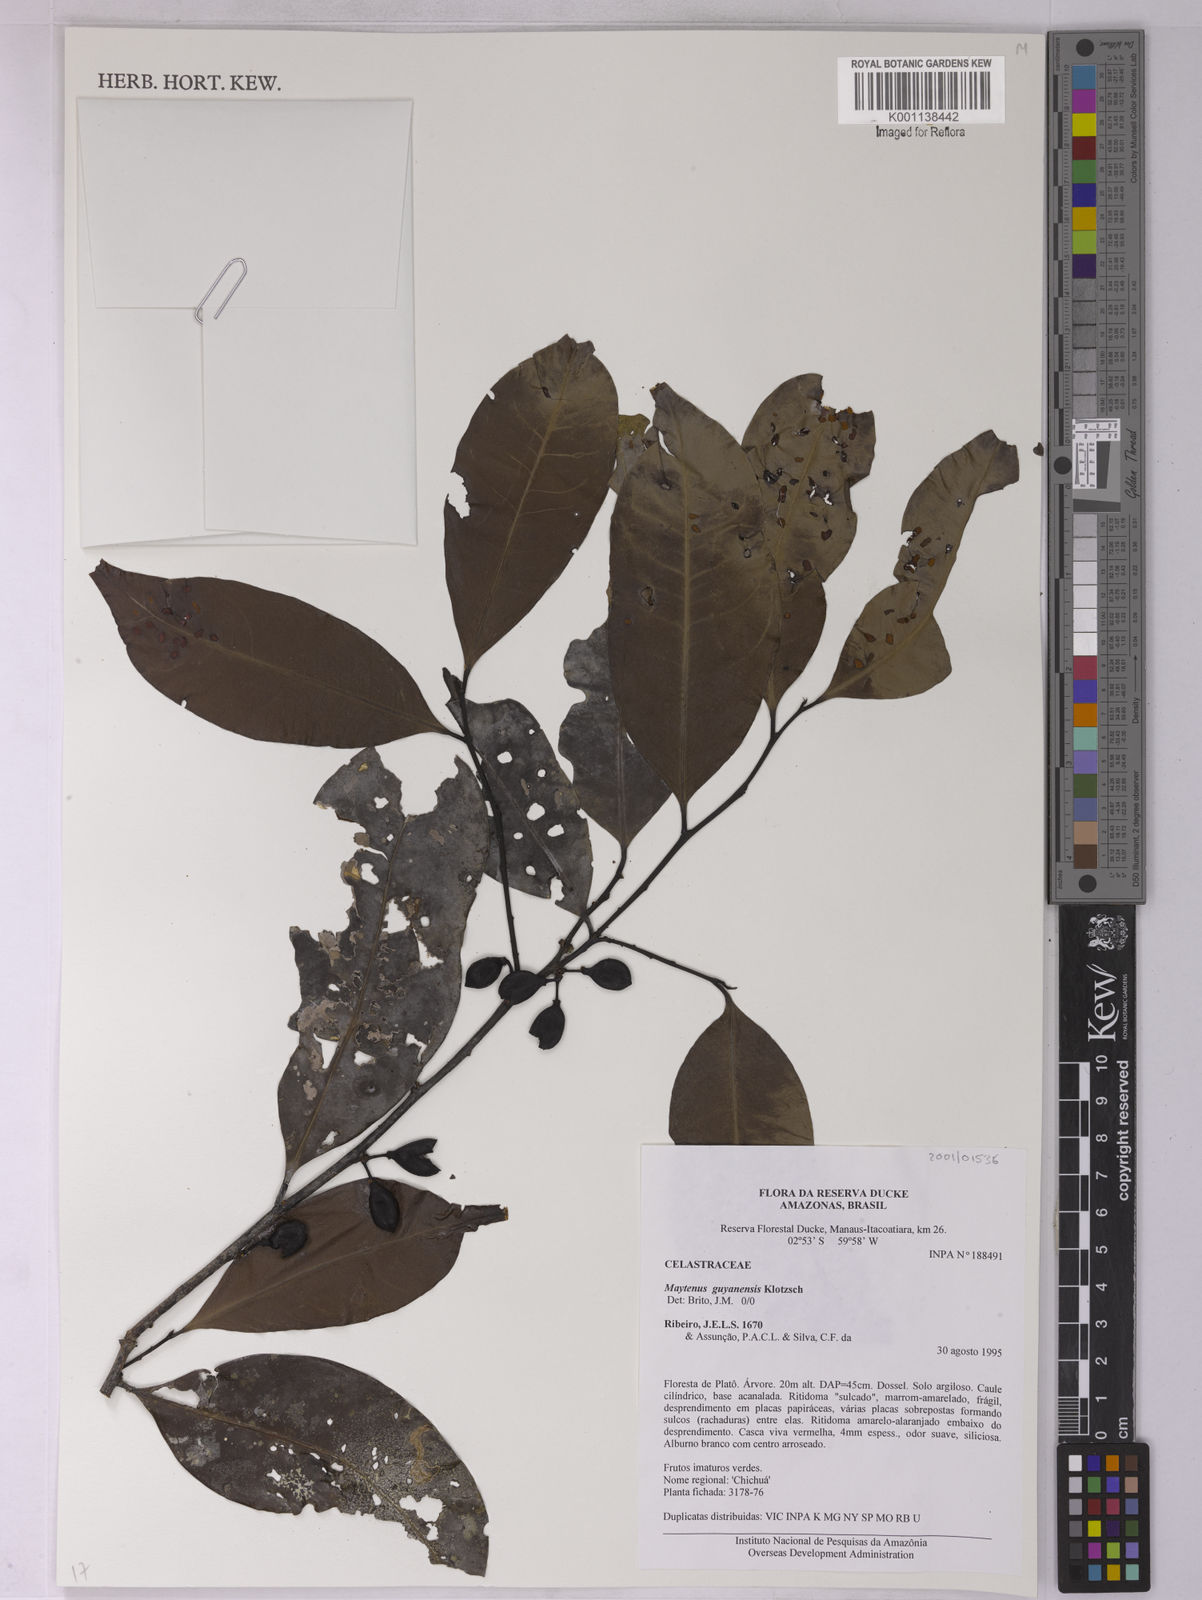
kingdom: Plantae
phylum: Tracheophyta
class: Magnoliopsida
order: Celastrales
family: Celastraceae
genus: Monteverdia
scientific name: Monteverdia guyanensis
